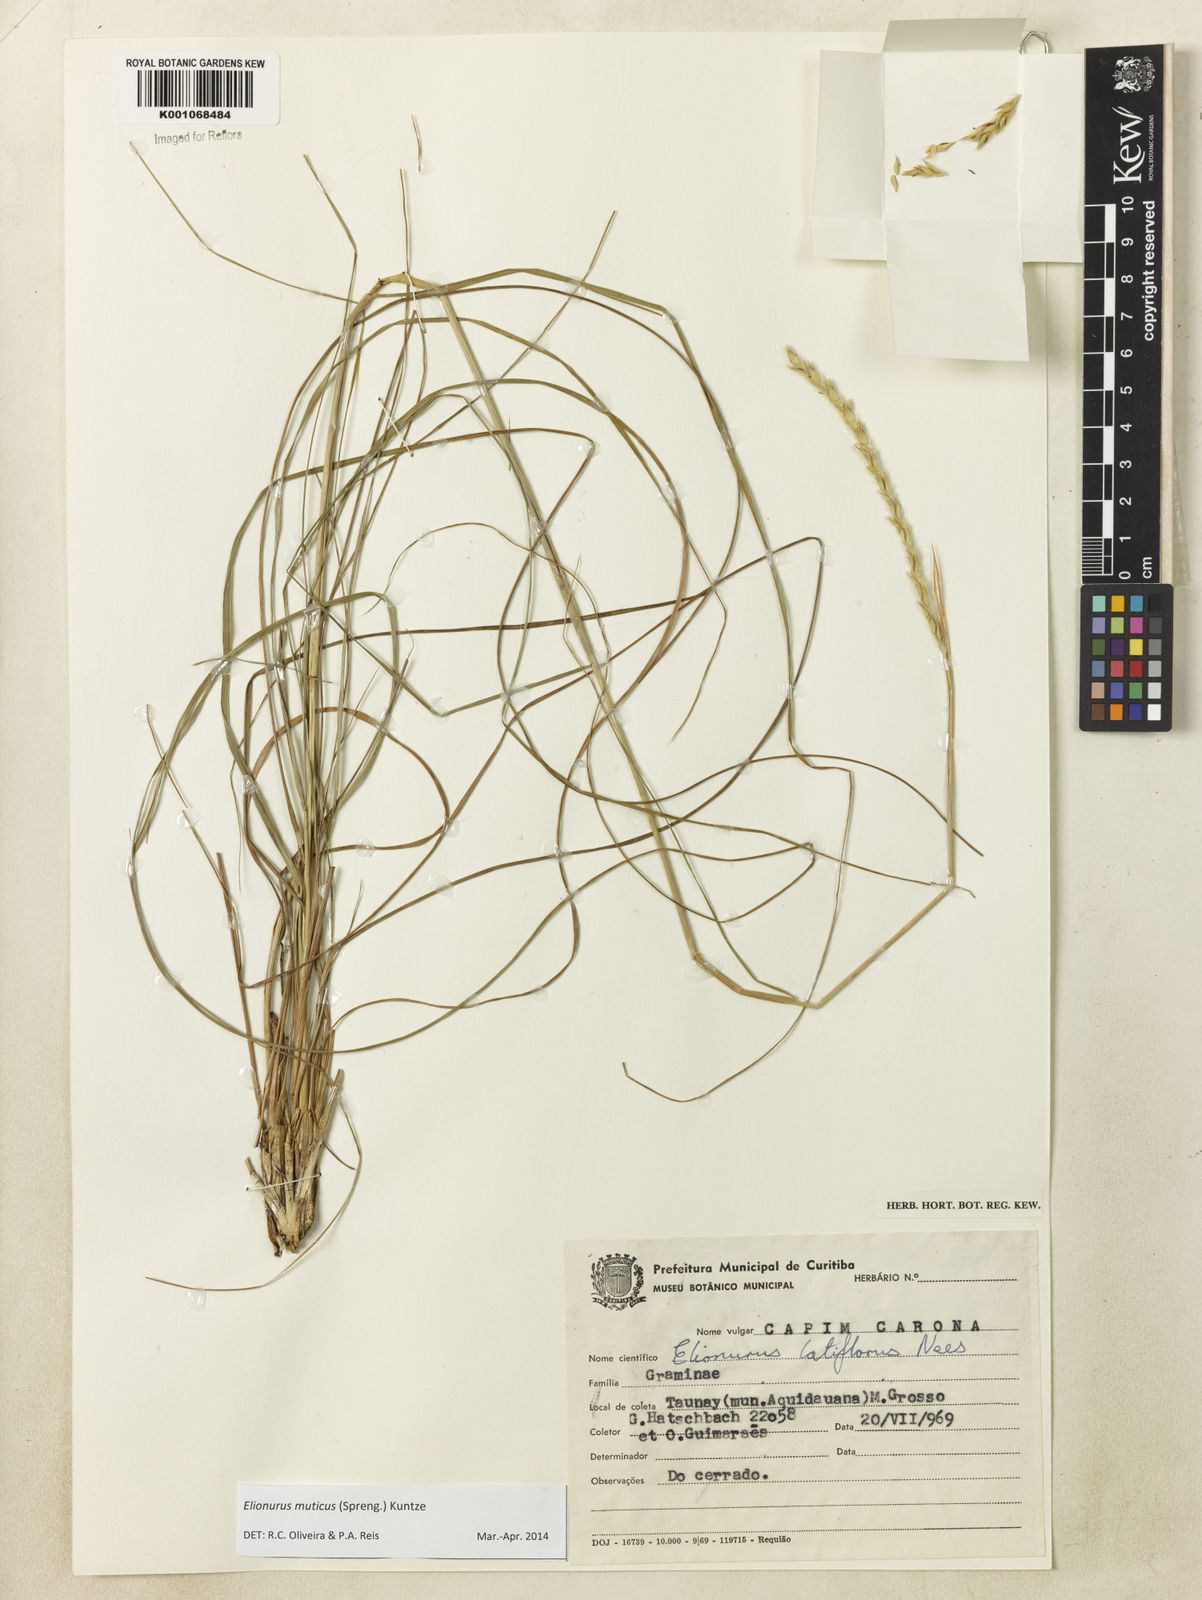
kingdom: Plantae
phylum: Tracheophyta
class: Liliopsida
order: Poales
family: Poaceae
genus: Elionurus
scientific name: Elionurus muticus
